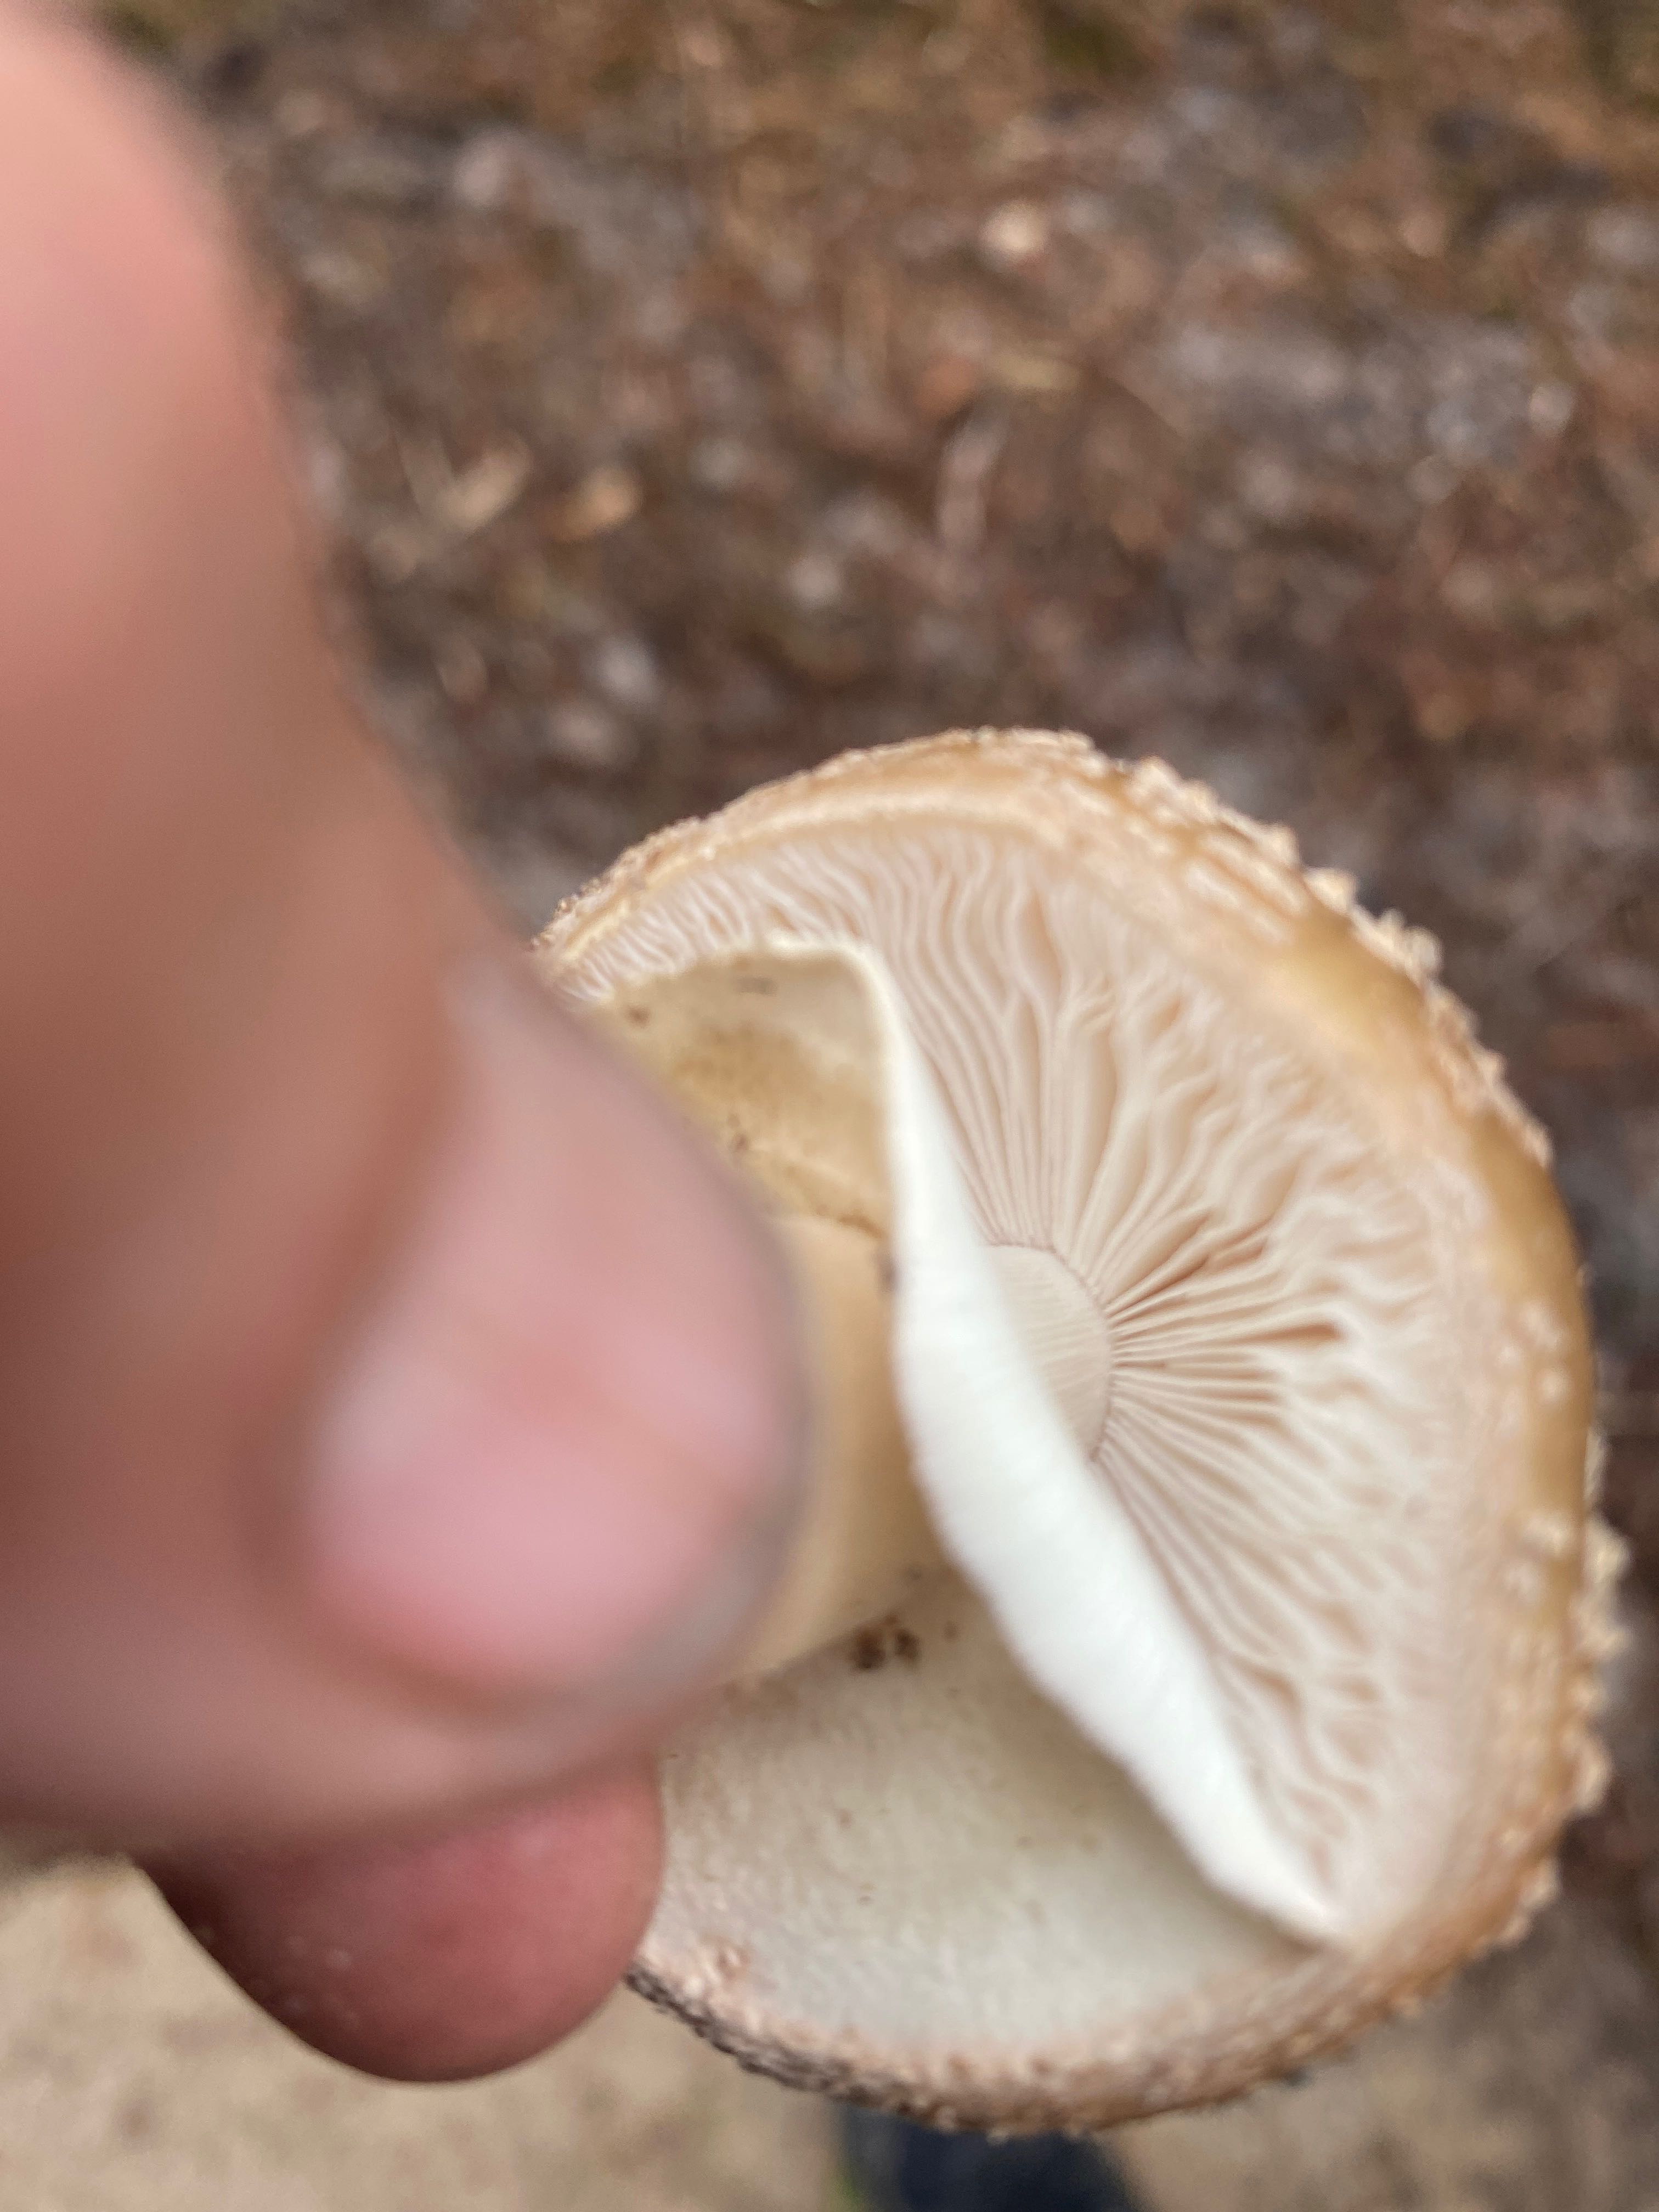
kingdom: Fungi
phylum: Basidiomycota
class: Agaricomycetes
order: Agaricales
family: Amanitaceae
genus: Amanita
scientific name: Amanita rubescens
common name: rødmende fluesvamp
